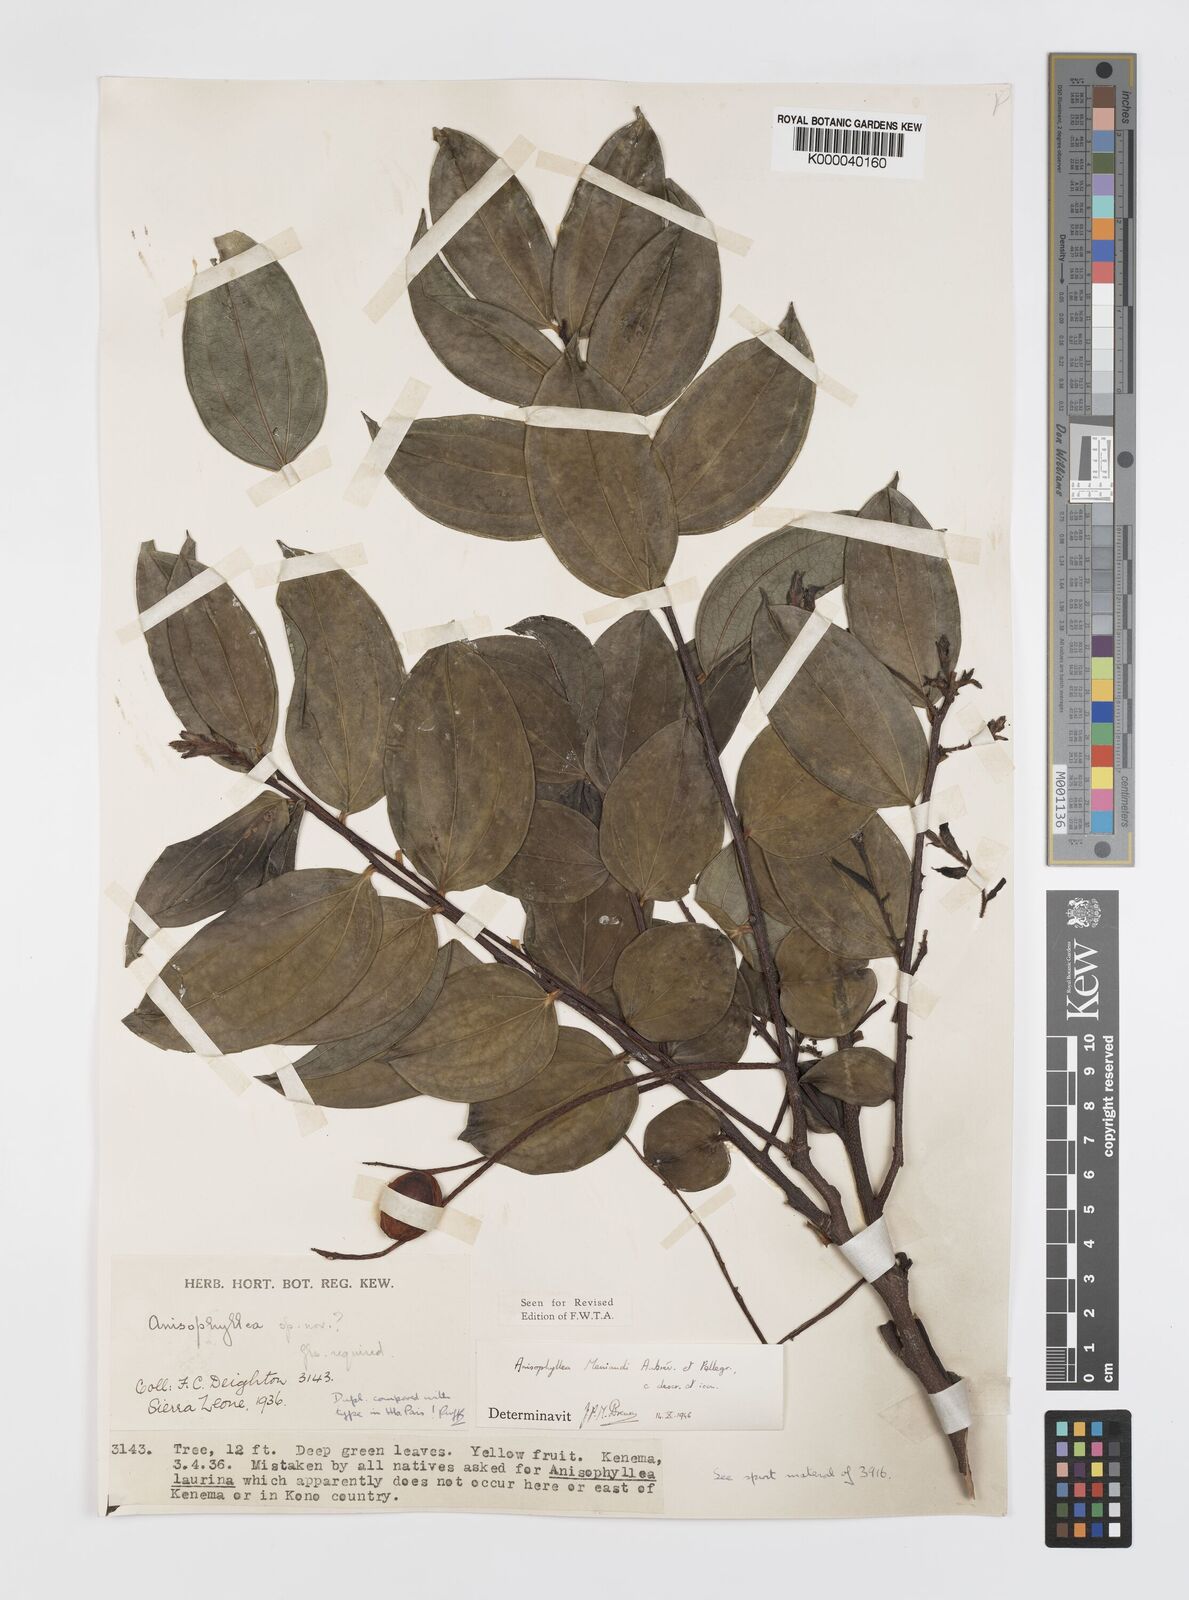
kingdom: Plantae
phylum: Tracheophyta
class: Magnoliopsida
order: Cucurbitales
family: Anisophylleaceae
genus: Anisophyllea
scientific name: Anisophyllea
